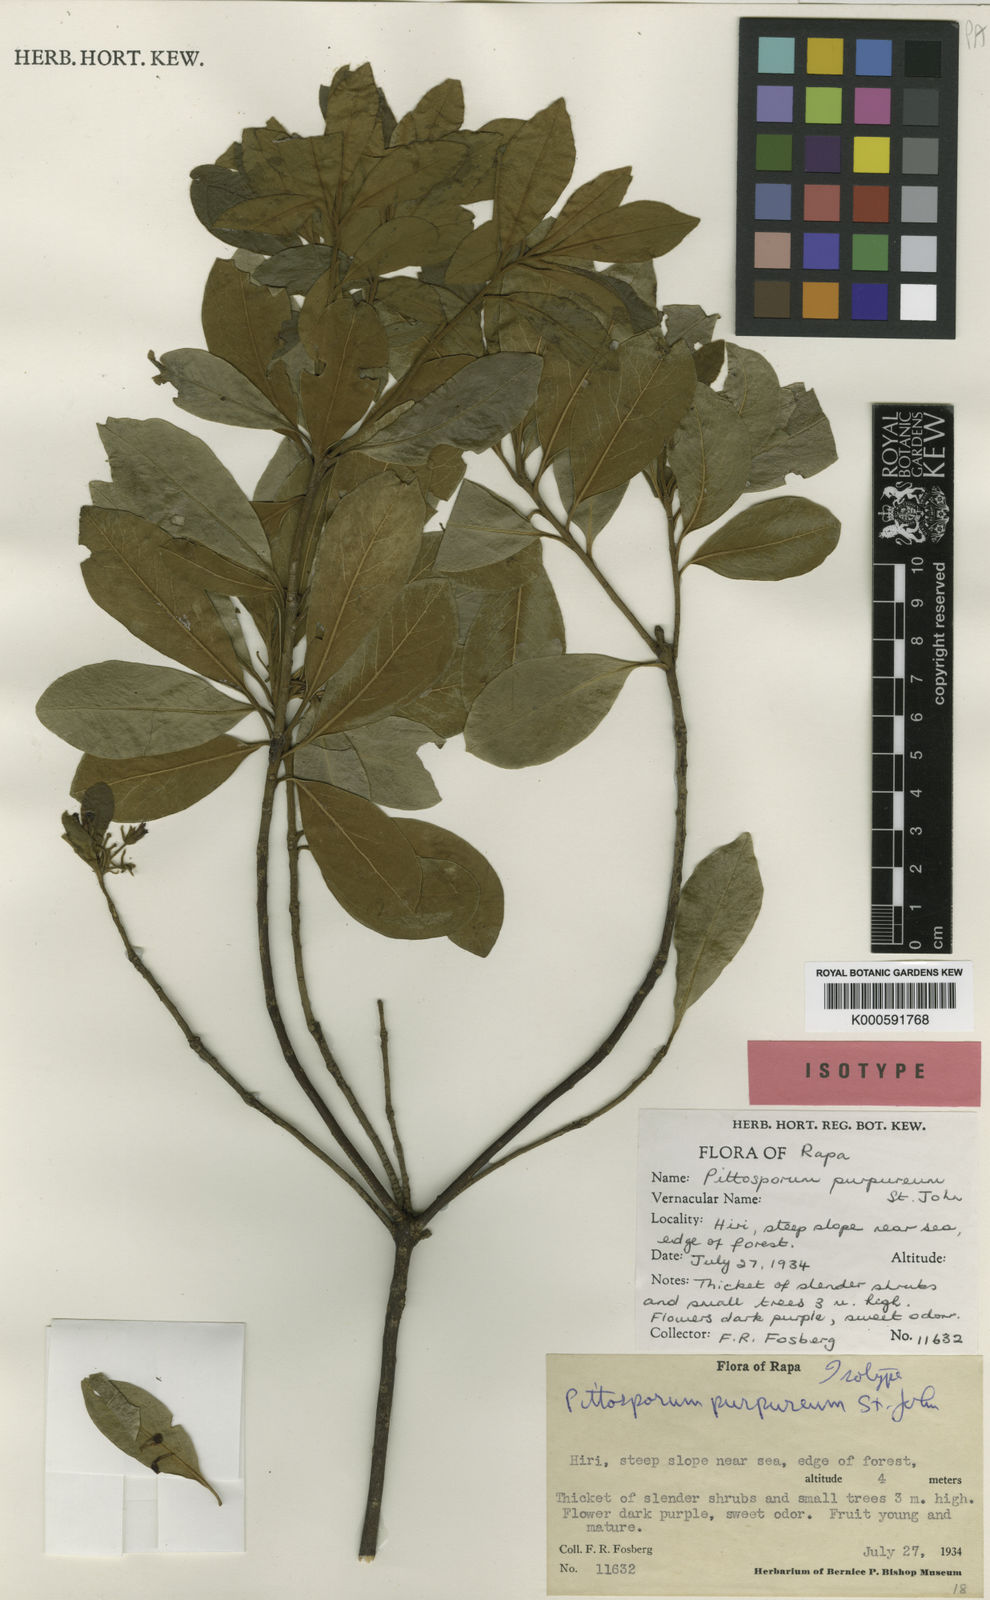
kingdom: Plantae
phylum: Tracheophyta
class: Magnoliopsida
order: Apiales
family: Pittosporaceae
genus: Pittosporum
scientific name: Pittosporum purpureum
